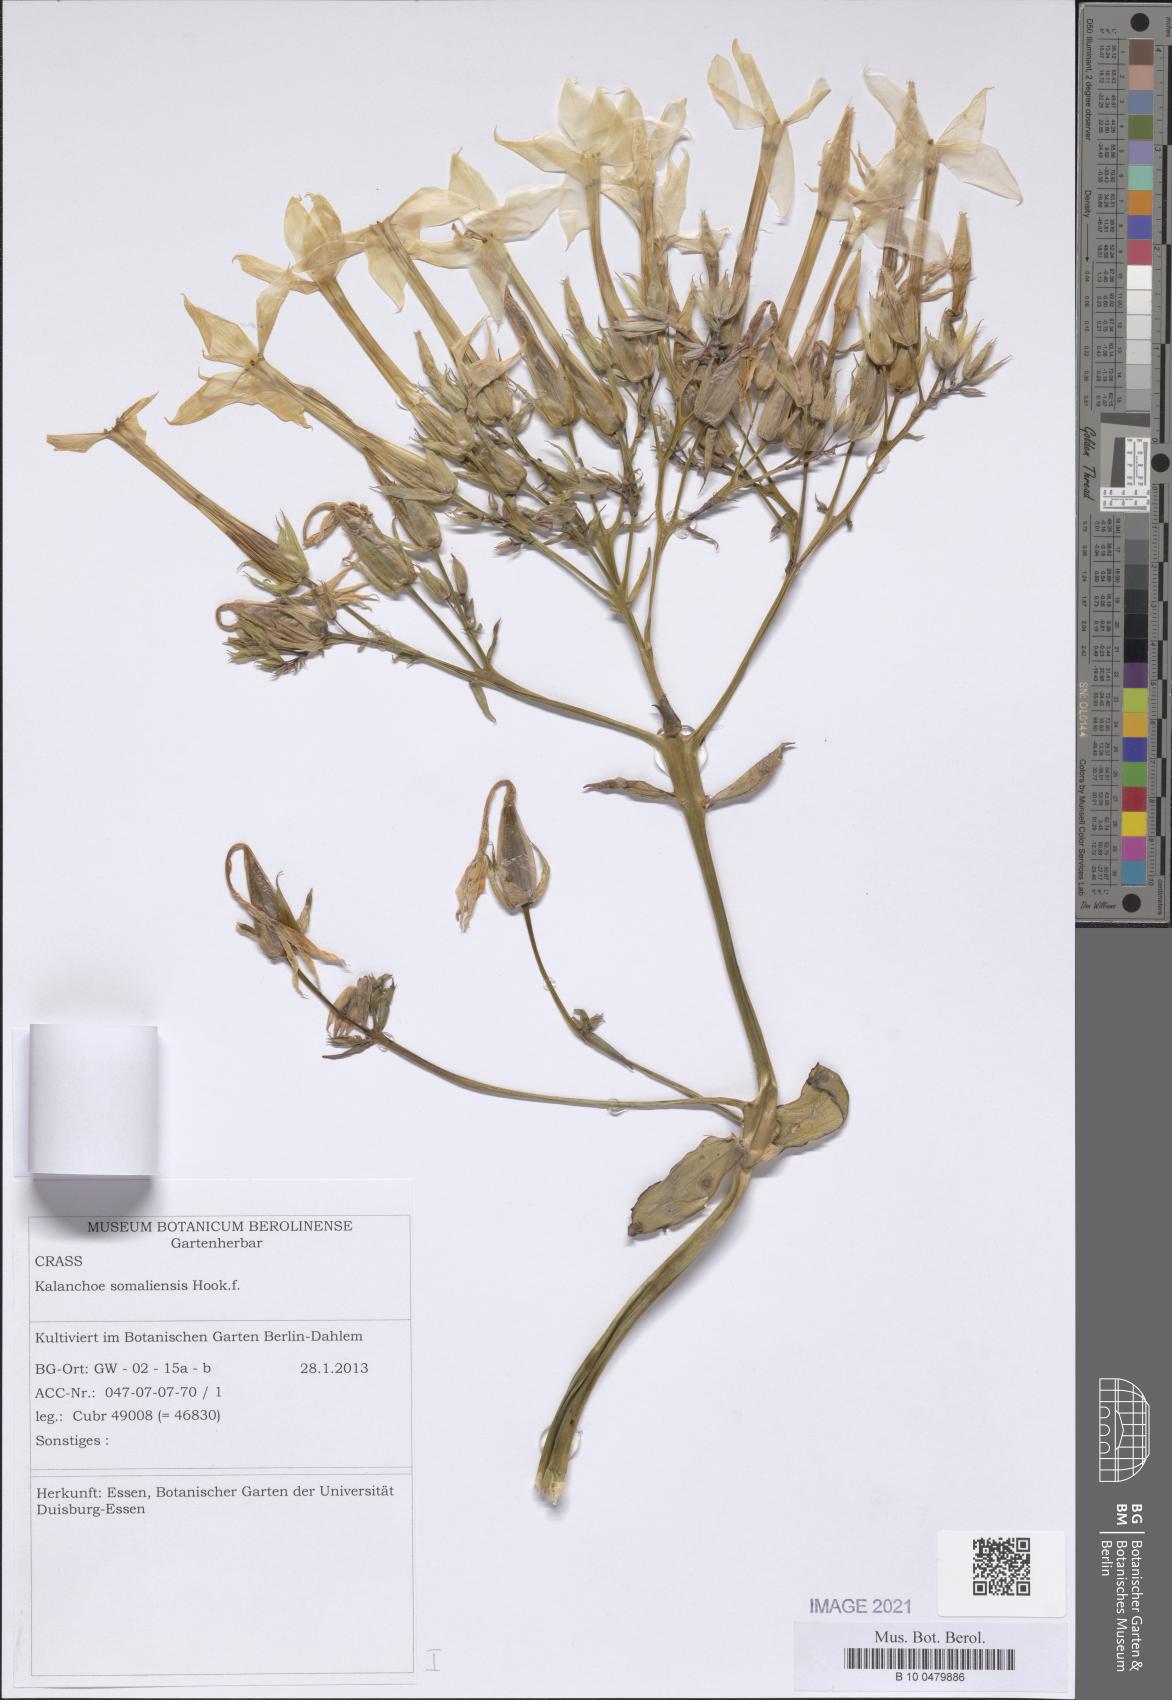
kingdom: Plantae
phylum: Tracheophyta
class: Magnoliopsida
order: Saxifragales
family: Crassulaceae
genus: Kalanchoe
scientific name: Kalanchoe marmorata
